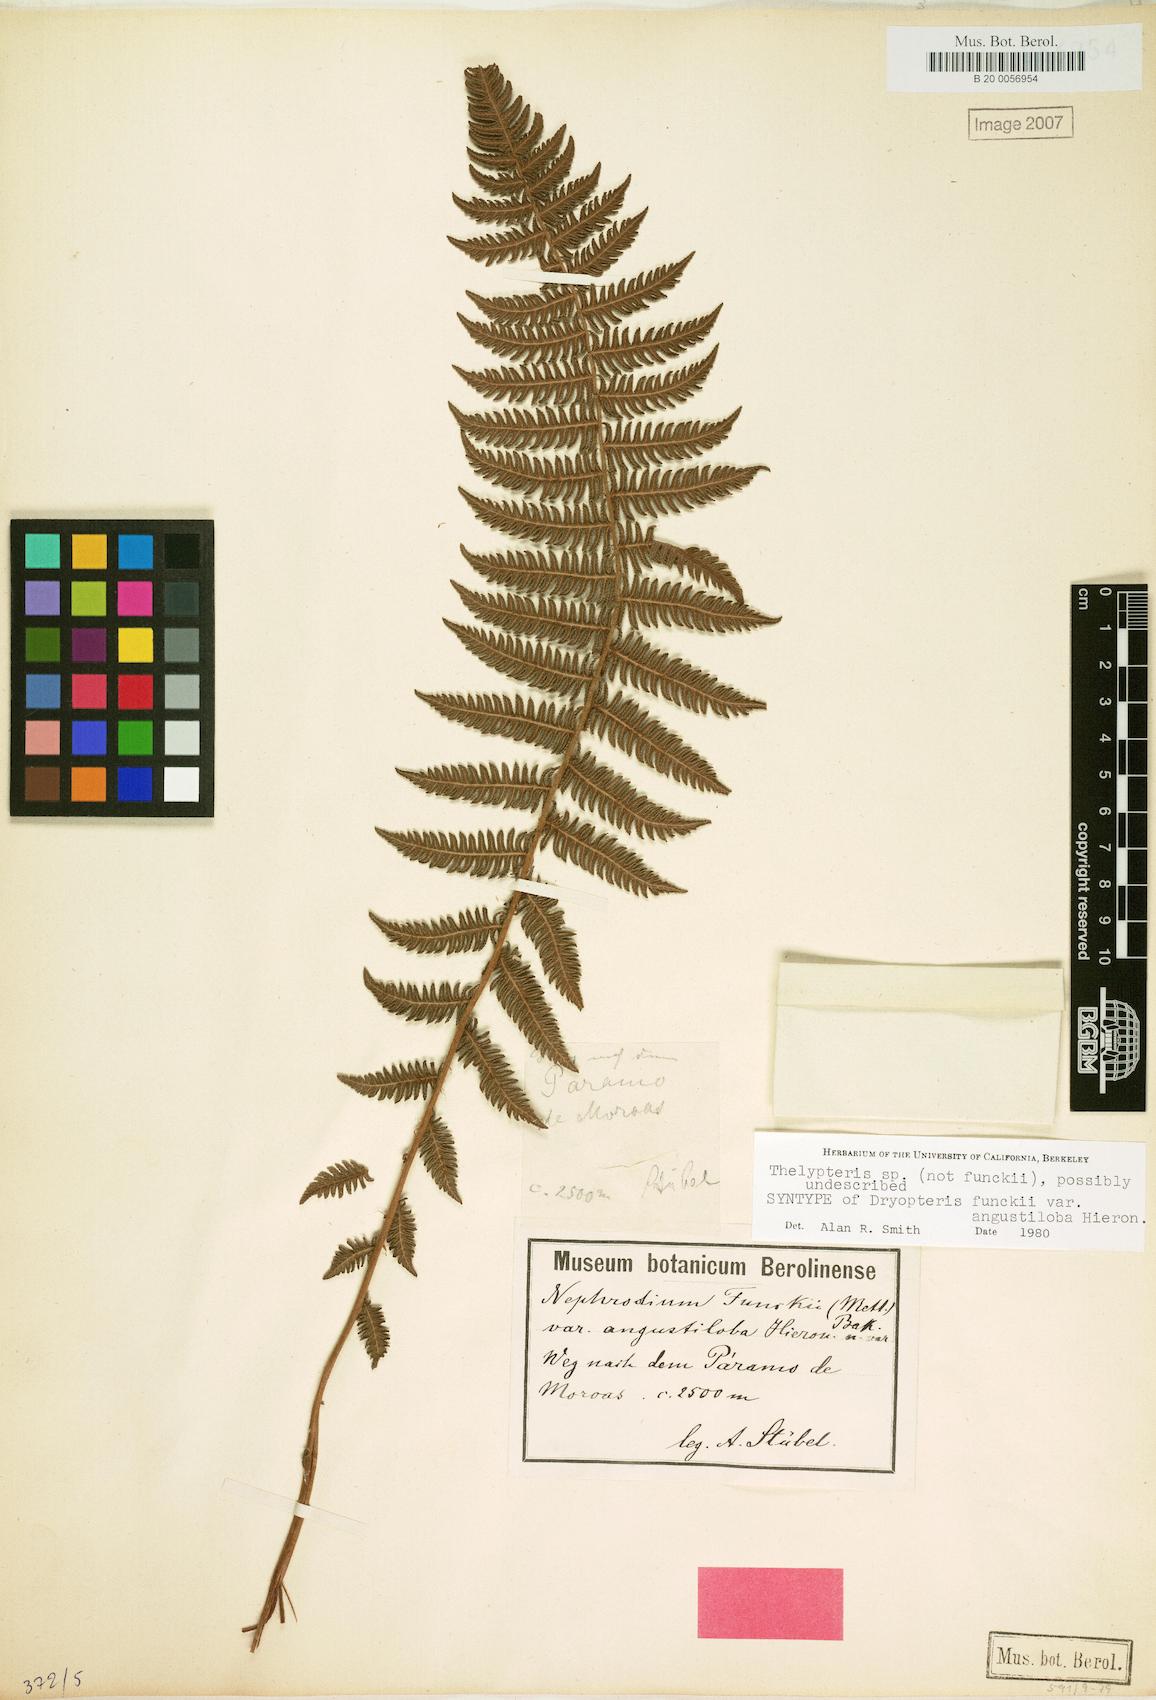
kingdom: Plantae
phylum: Tracheophyta
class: Polypodiopsida
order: Polypodiales
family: Thelypteridaceae
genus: Amauropelta
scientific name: Amauropelta corazonensis
